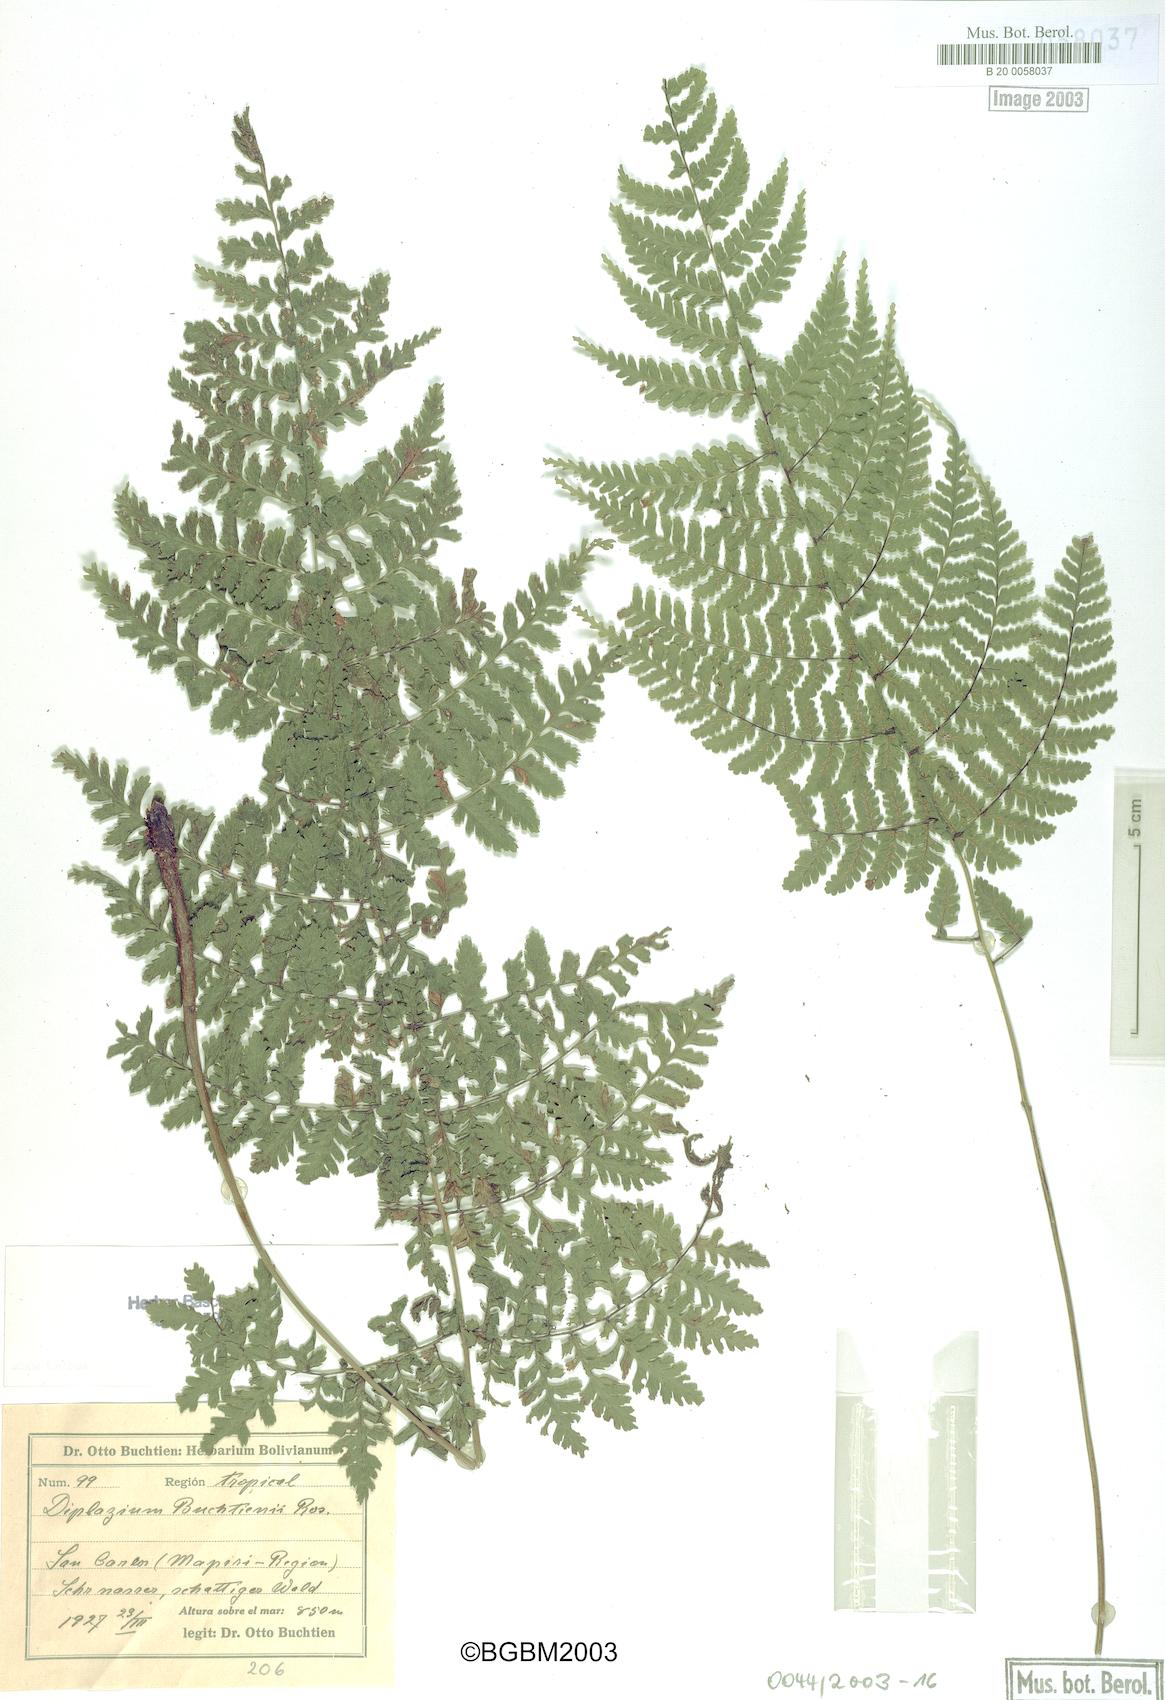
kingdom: Plantae
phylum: Tracheophyta
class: Polypodiopsida
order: Polypodiales
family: Athyriaceae
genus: Diplazium
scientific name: Diplazium buchtienii
